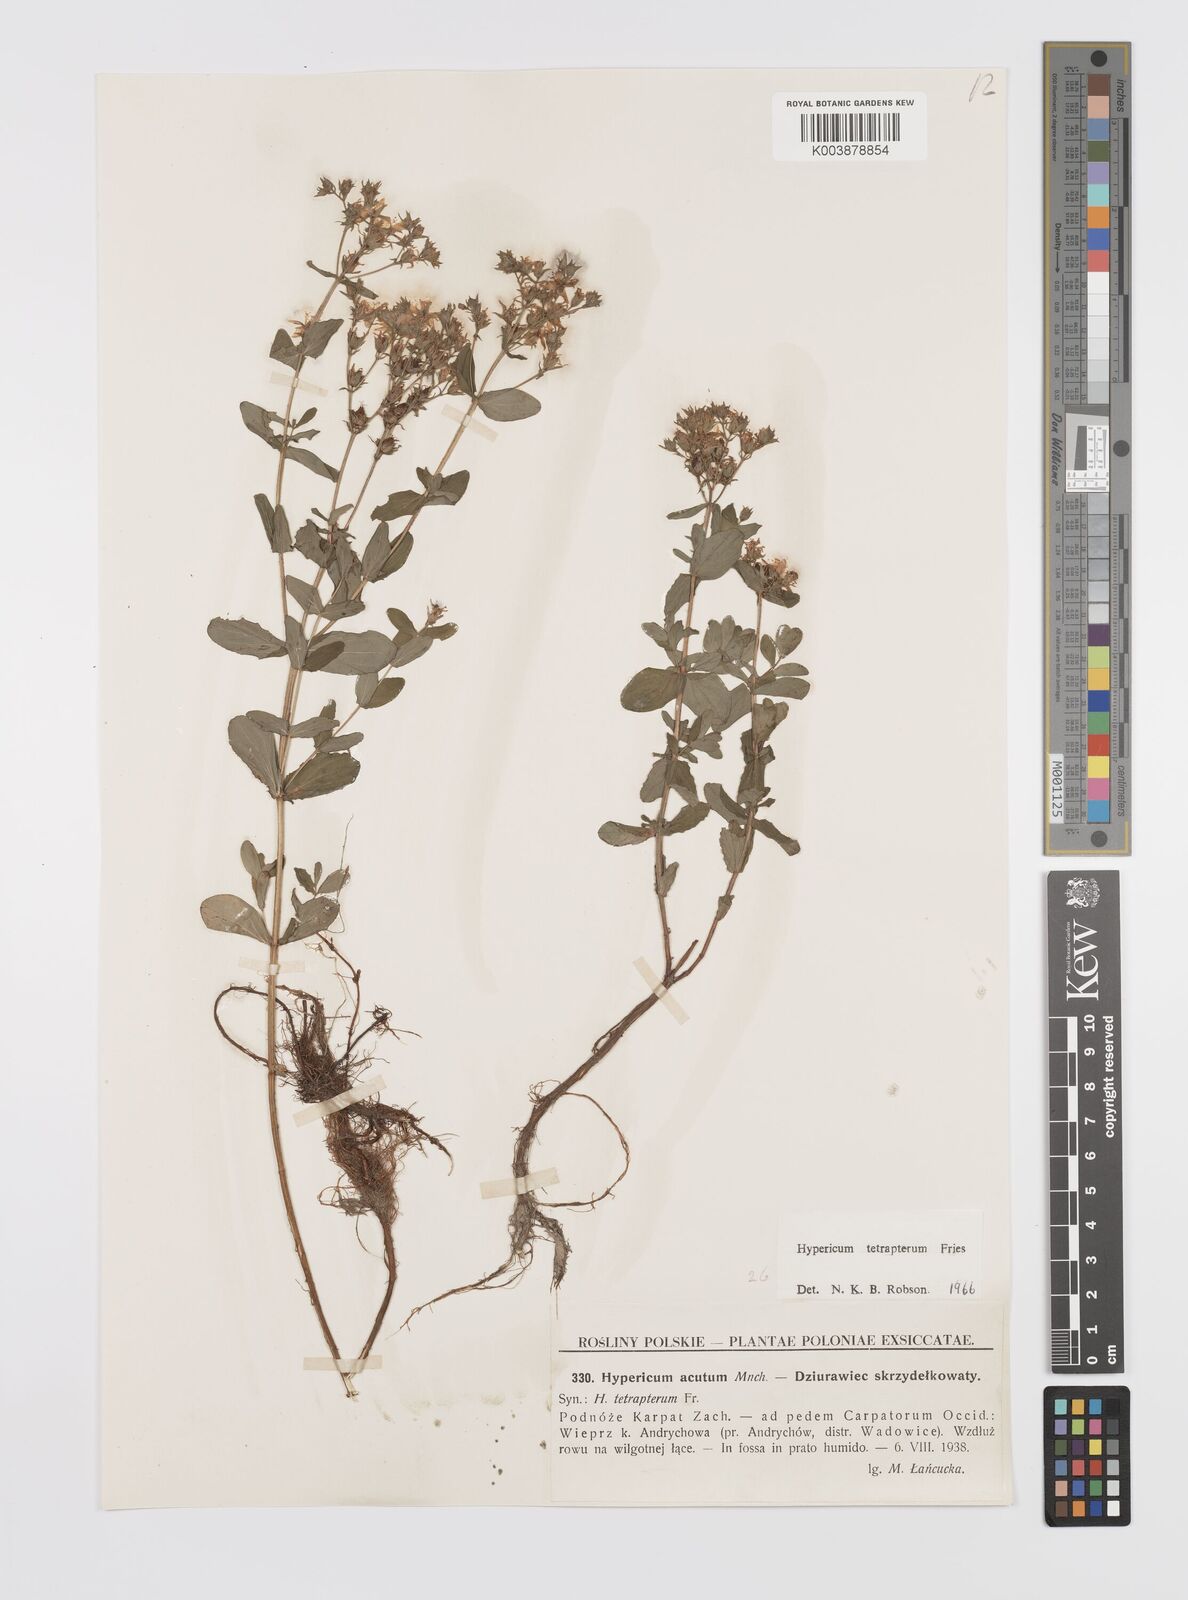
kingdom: Plantae
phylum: Tracheophyta
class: Magnoliopsida
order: Malpighiales
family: Hypericaceae
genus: Hypericum
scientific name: Hypericum tetrapterum
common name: Square-stalked st. john's-wort
